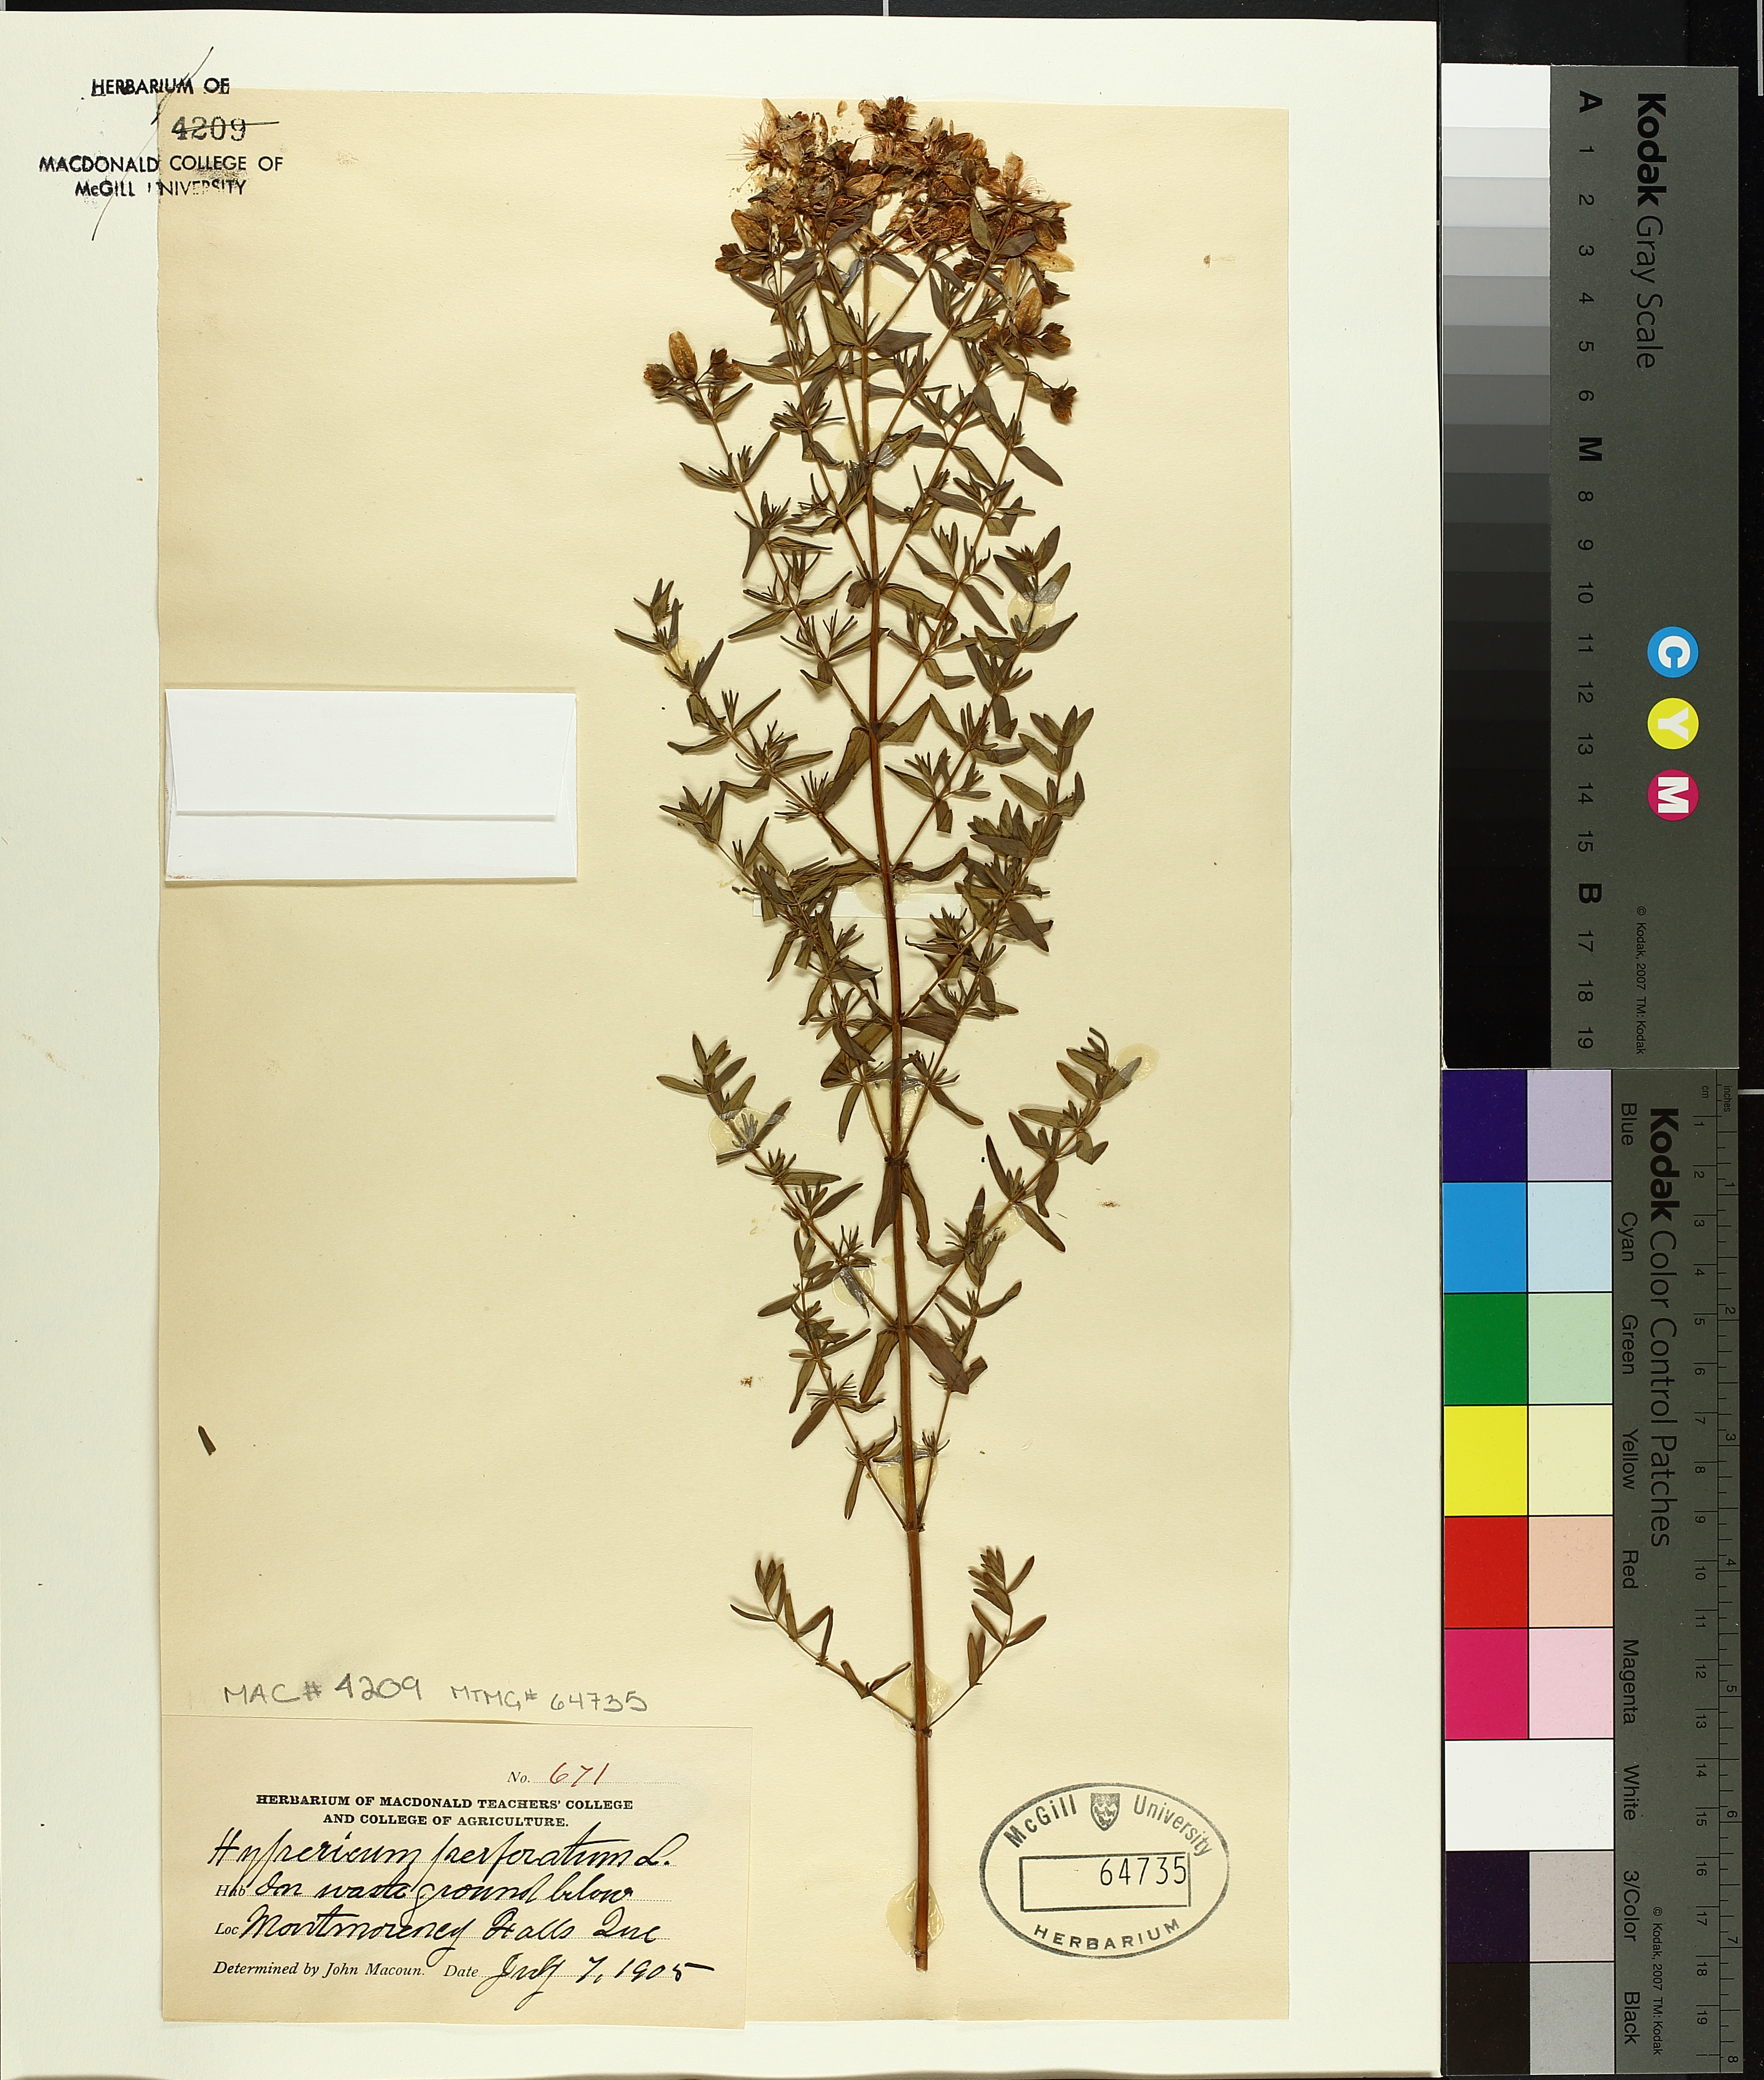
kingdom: Plantae
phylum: Tracheophyta
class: Magnoliopsida
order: Malpighiales
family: Hypericaceae
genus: Hypericum
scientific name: Hypericum punctatum
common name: Spotted st. john's-wort
